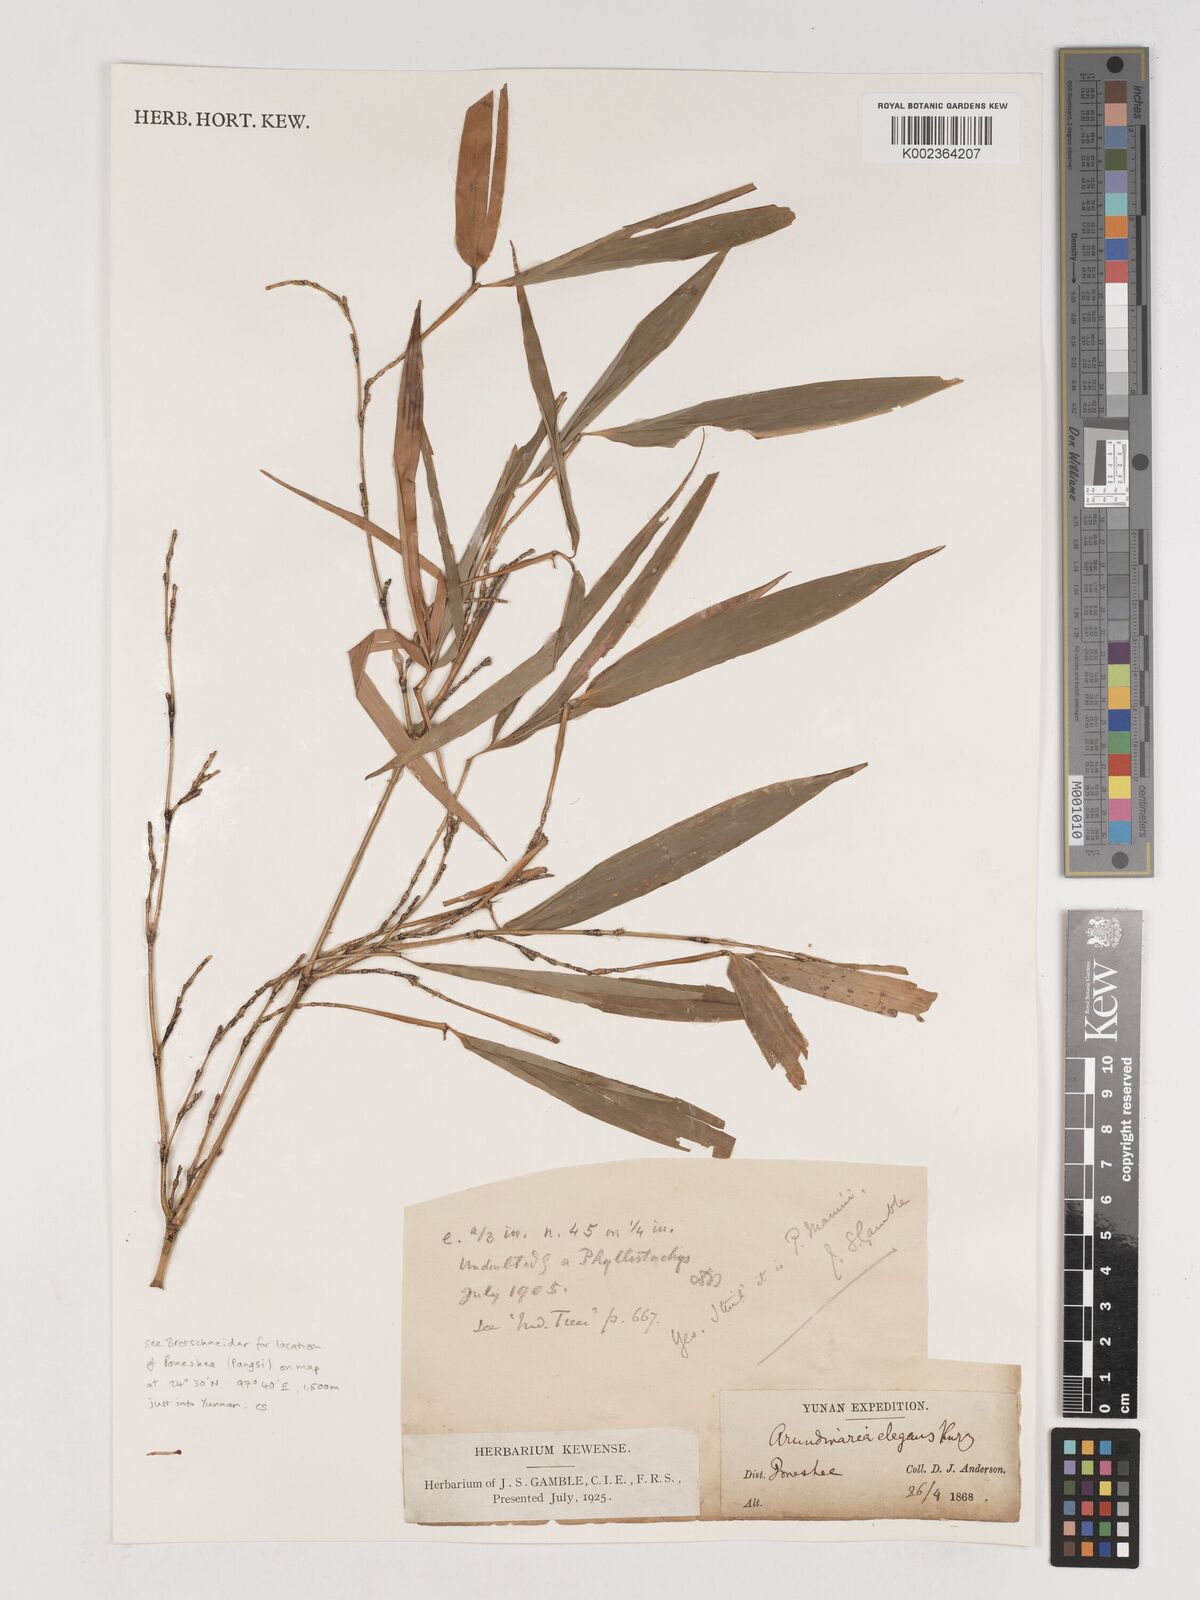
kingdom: Plantae
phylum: Tracheophyta
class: Liliopsida
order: Poales
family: Poaceae
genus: Phyllostachys
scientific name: Phyllostachys makinoi
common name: Makino bamboo
